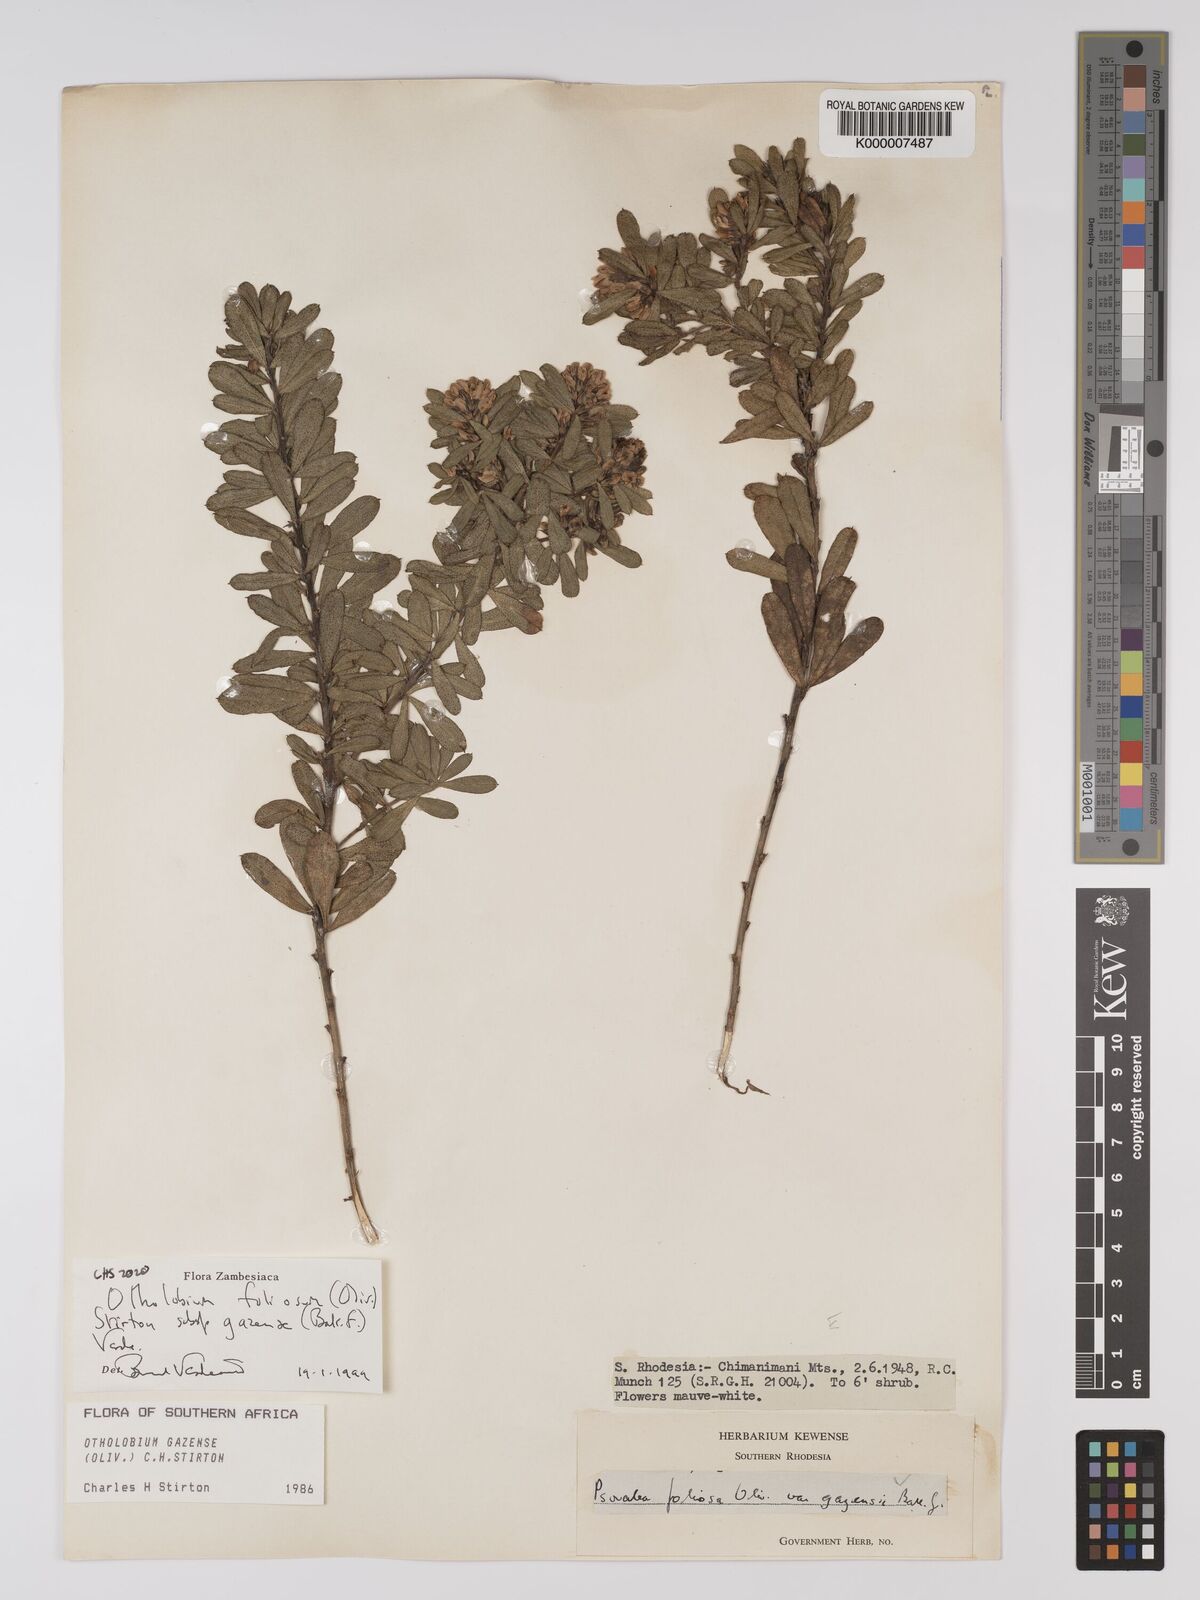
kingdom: Plantae
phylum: Tracheophyta
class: Magnoliopsida
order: Fabales
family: Fabaceae
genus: Psoralea
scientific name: Psoralea foliosa
